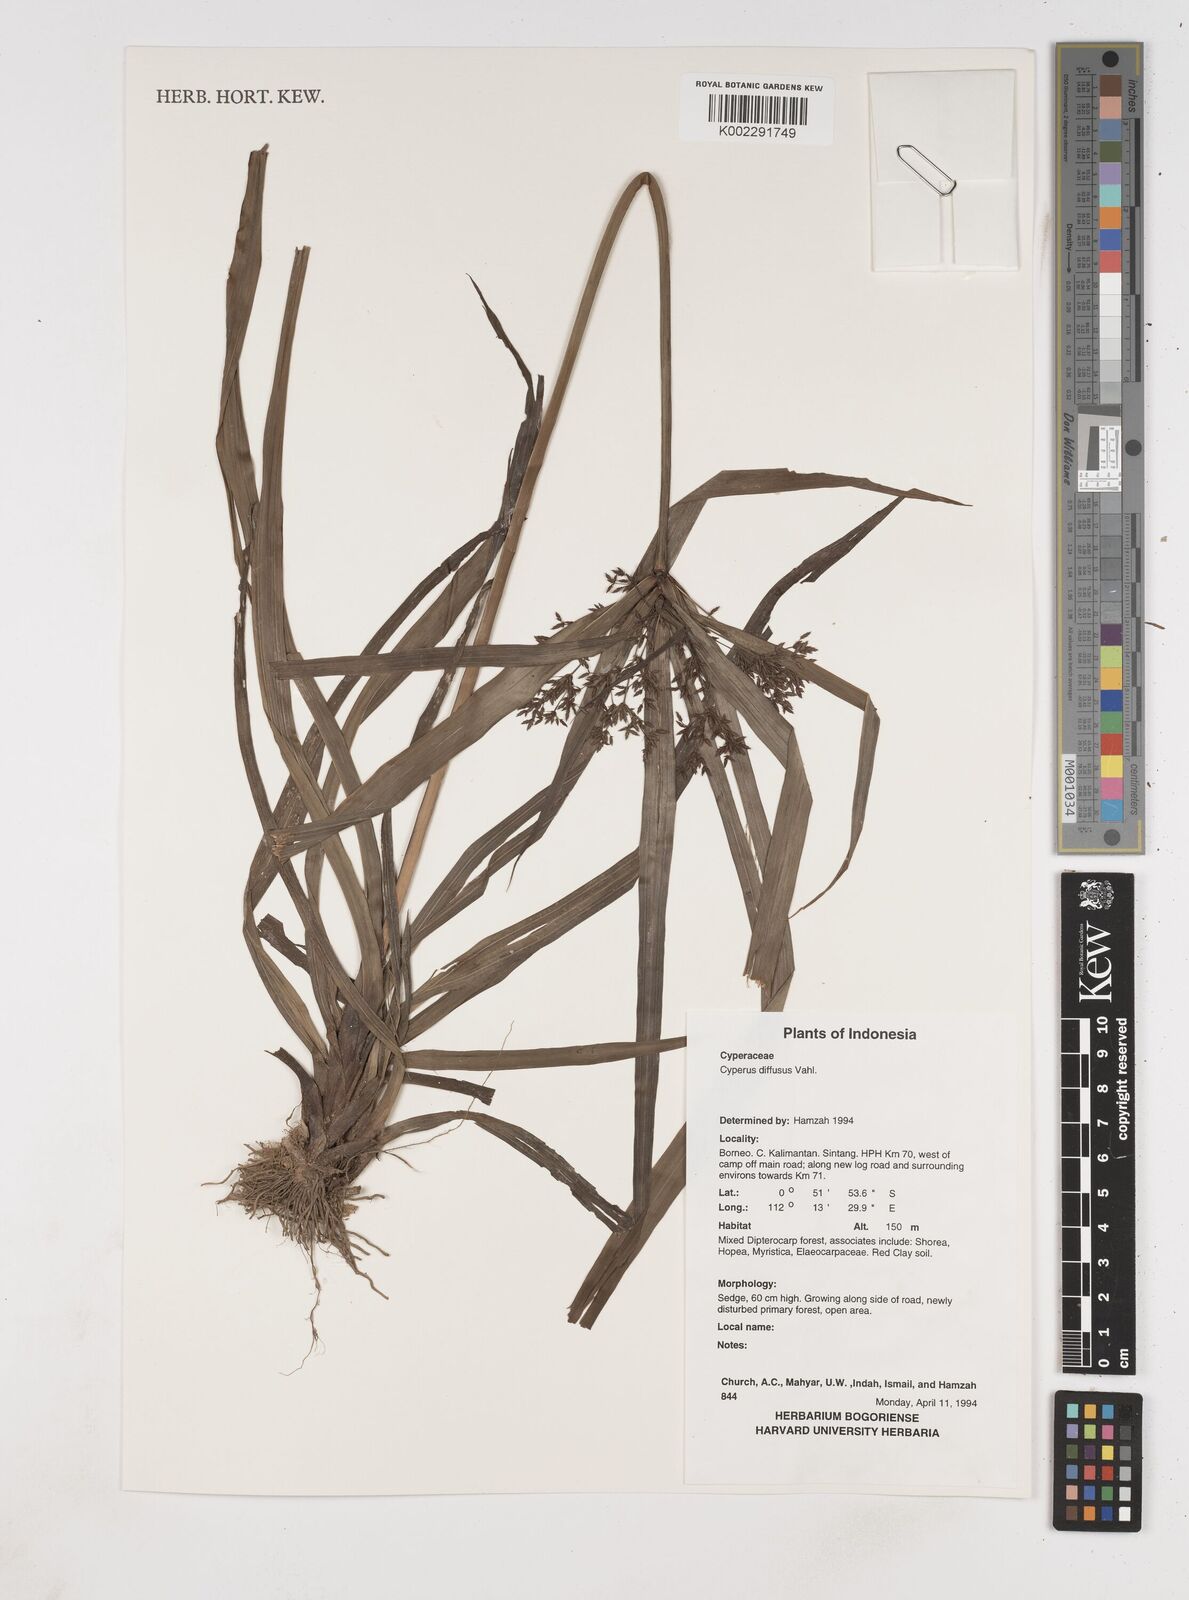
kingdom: Plantae
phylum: Tracheophyta
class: Liliopsida
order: Poales
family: Cyperaceae
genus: Cyperus
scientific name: Cyperus diffusus
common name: Dwarf umbrella grass
